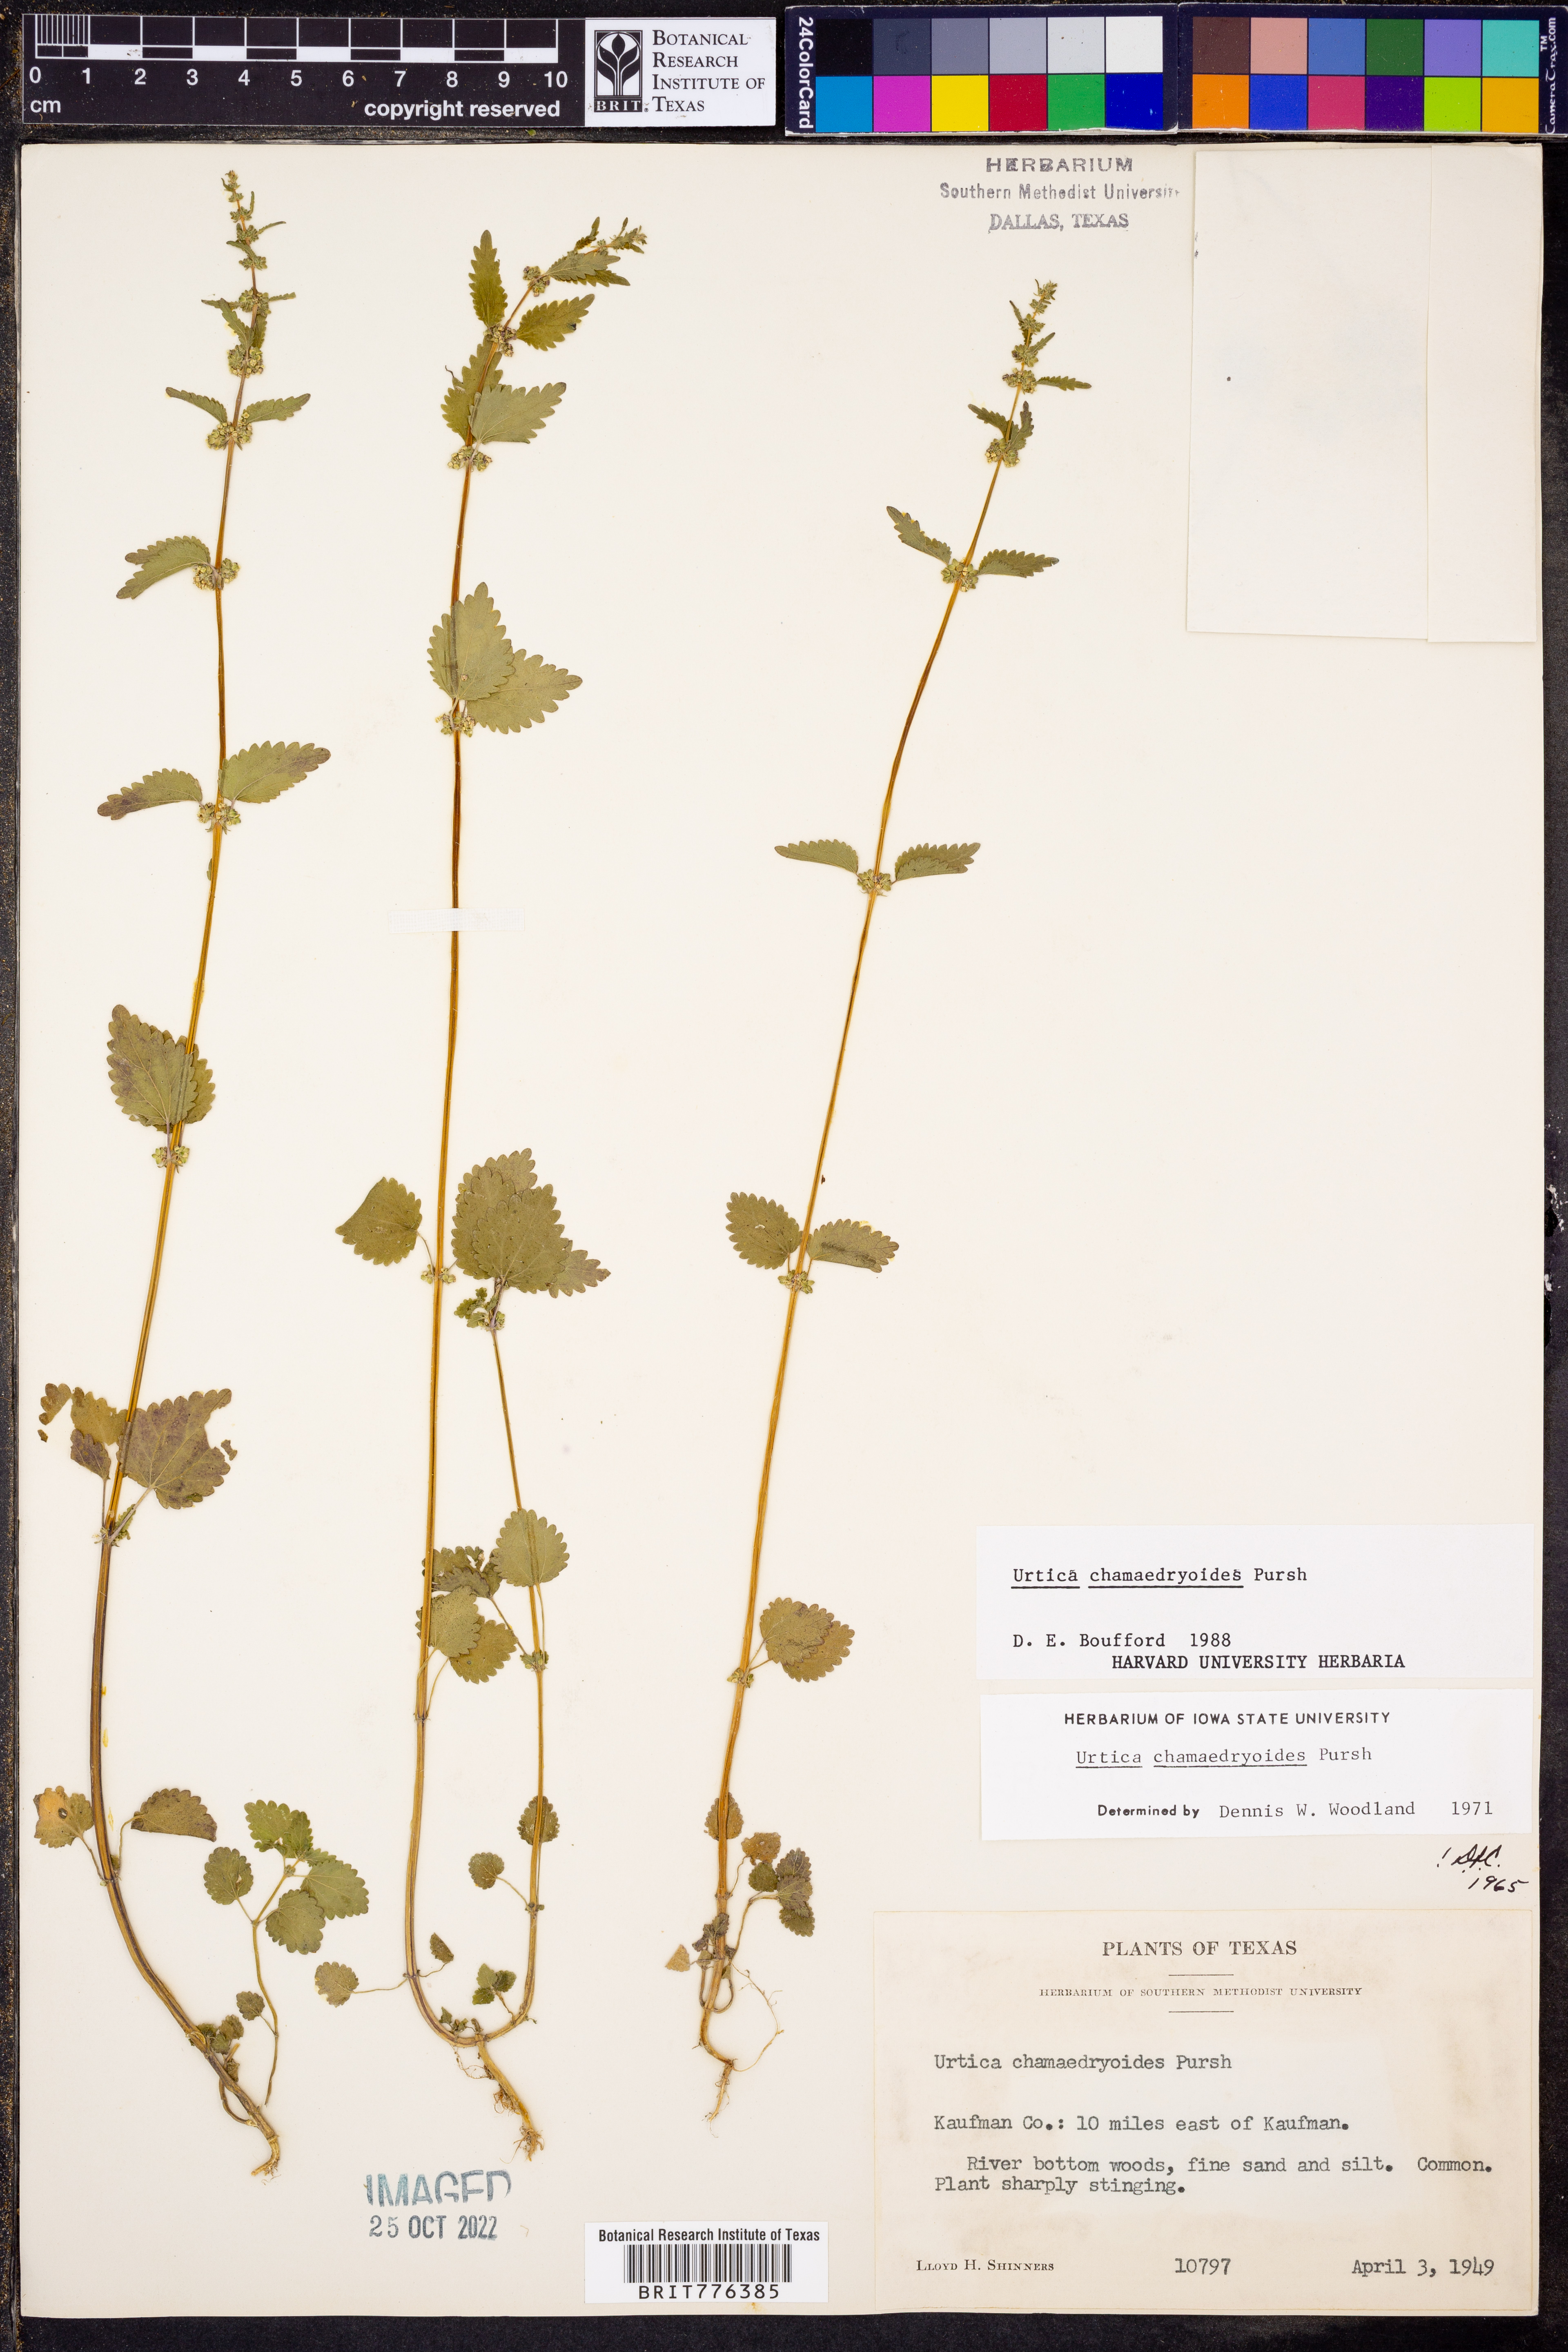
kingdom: Plantae
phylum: Tracheophyta
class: Magnoliopsida
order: Rosales
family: Urticaceae
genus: Urtica
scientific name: Urtica chamaedryoides
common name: Heart-leaf nettle
